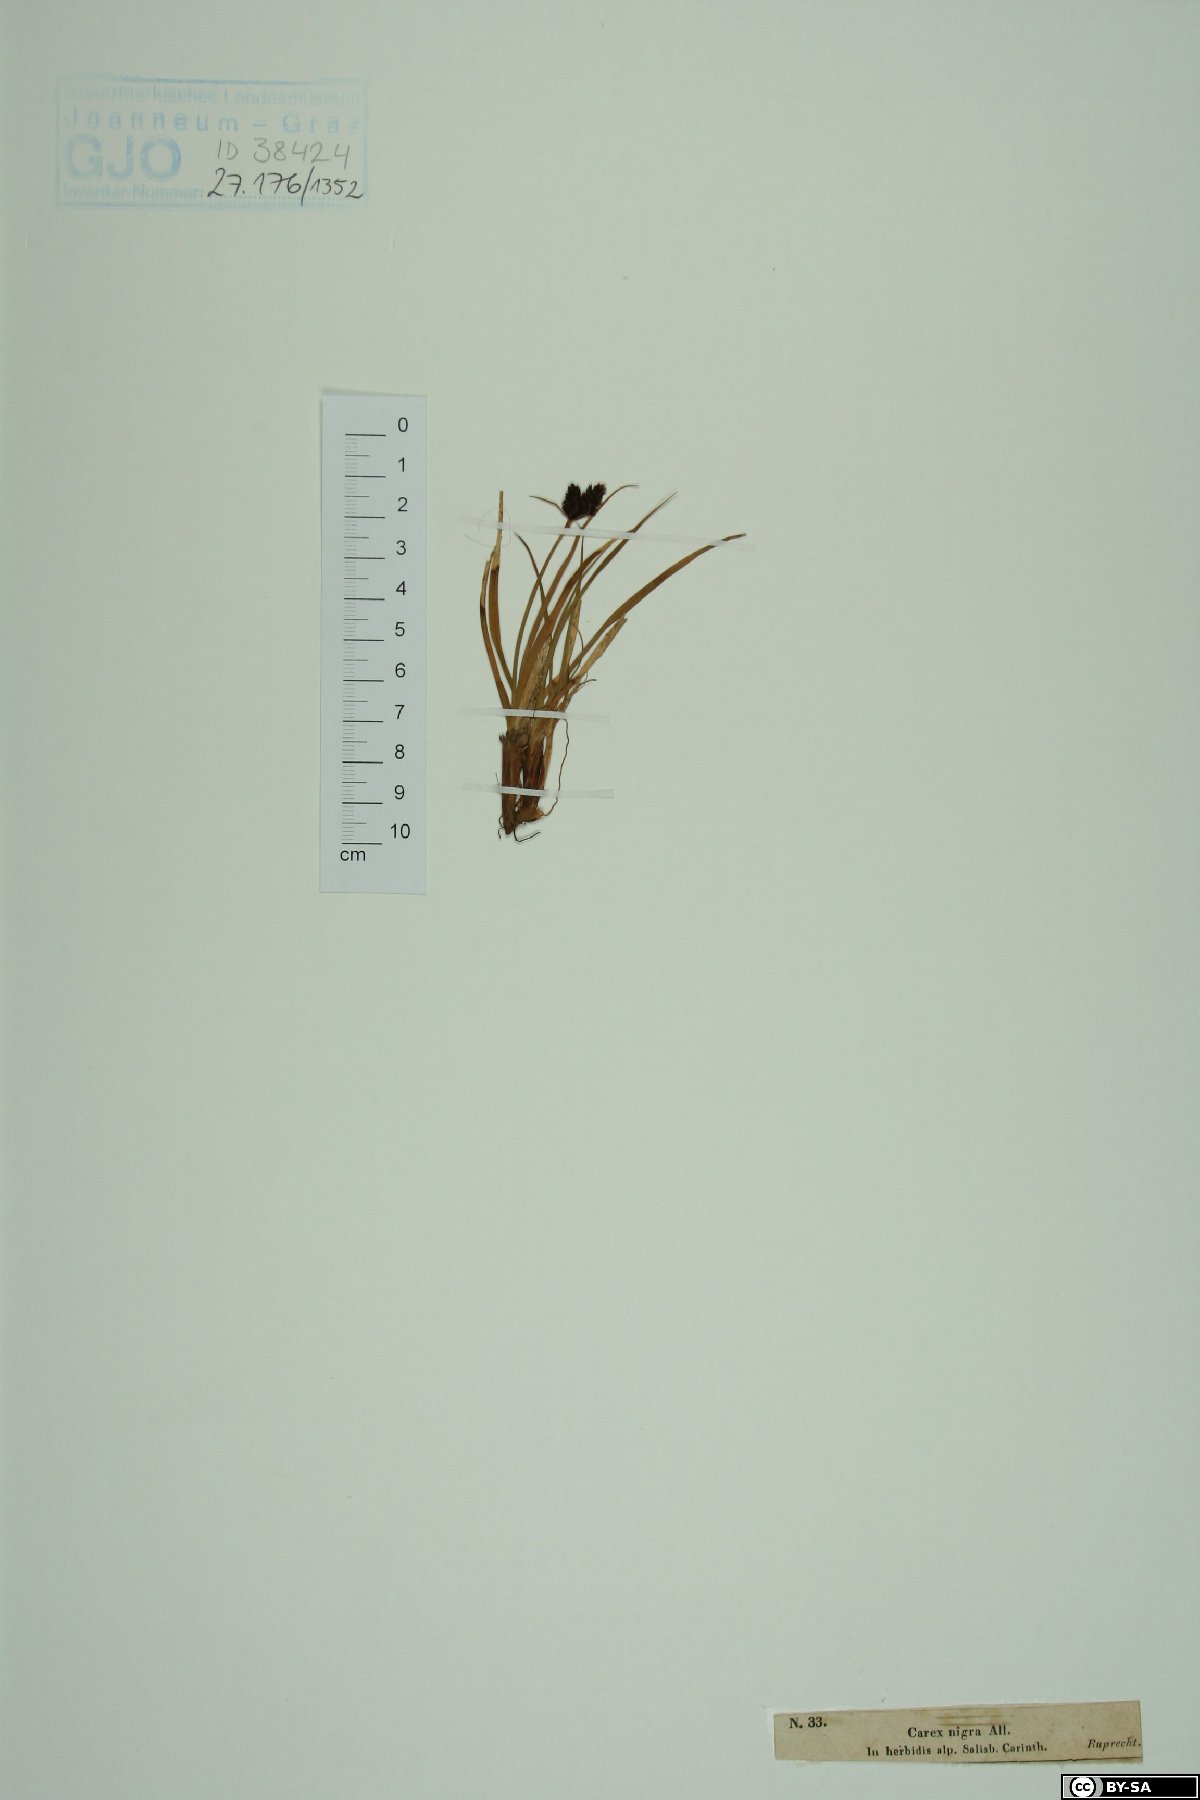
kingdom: Plantae
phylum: Tracheophyta
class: Liliopsida
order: Poales
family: Cyperaceae
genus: Carex
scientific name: Carex nigra
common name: Common sedge
